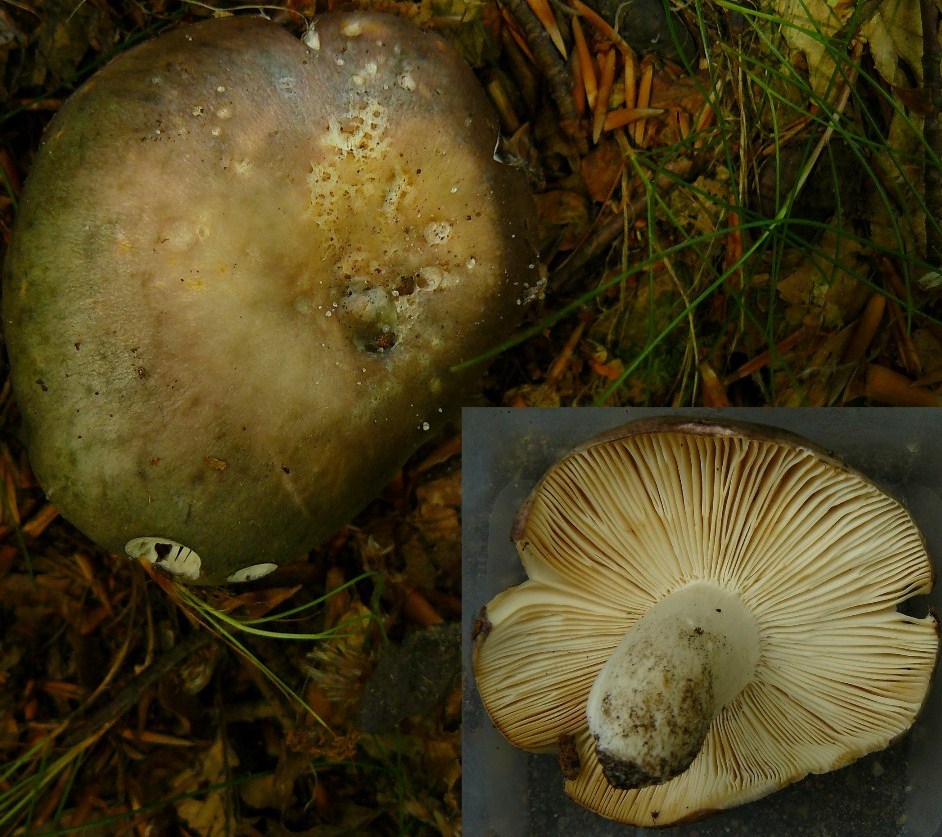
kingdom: Fungi
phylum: Basidiomycota
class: Agaricomycetes
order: Russulales
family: Russulaceae
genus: Russula
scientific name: Russula cyanoxantha
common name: broget skørhat
